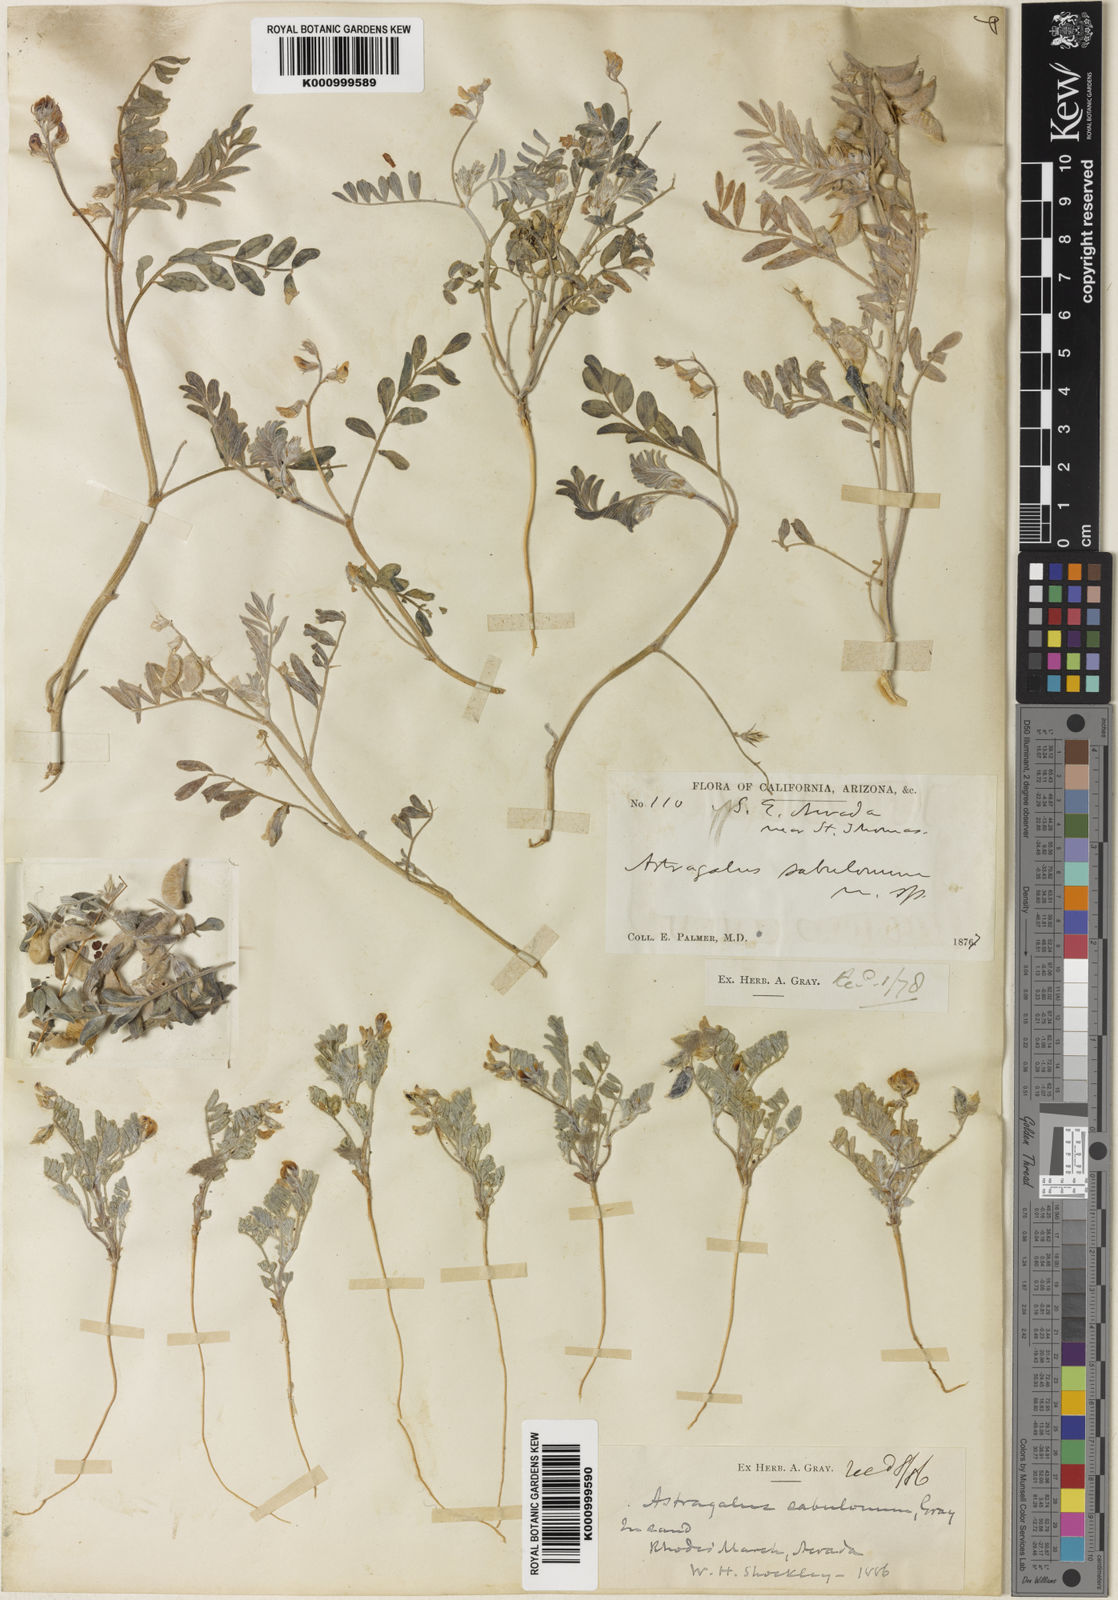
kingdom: Plantae
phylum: Tracheophyta
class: Magnoliopsida
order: Fabales
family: Fabaceae
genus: Astragalus
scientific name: Astragalus sabulonum
